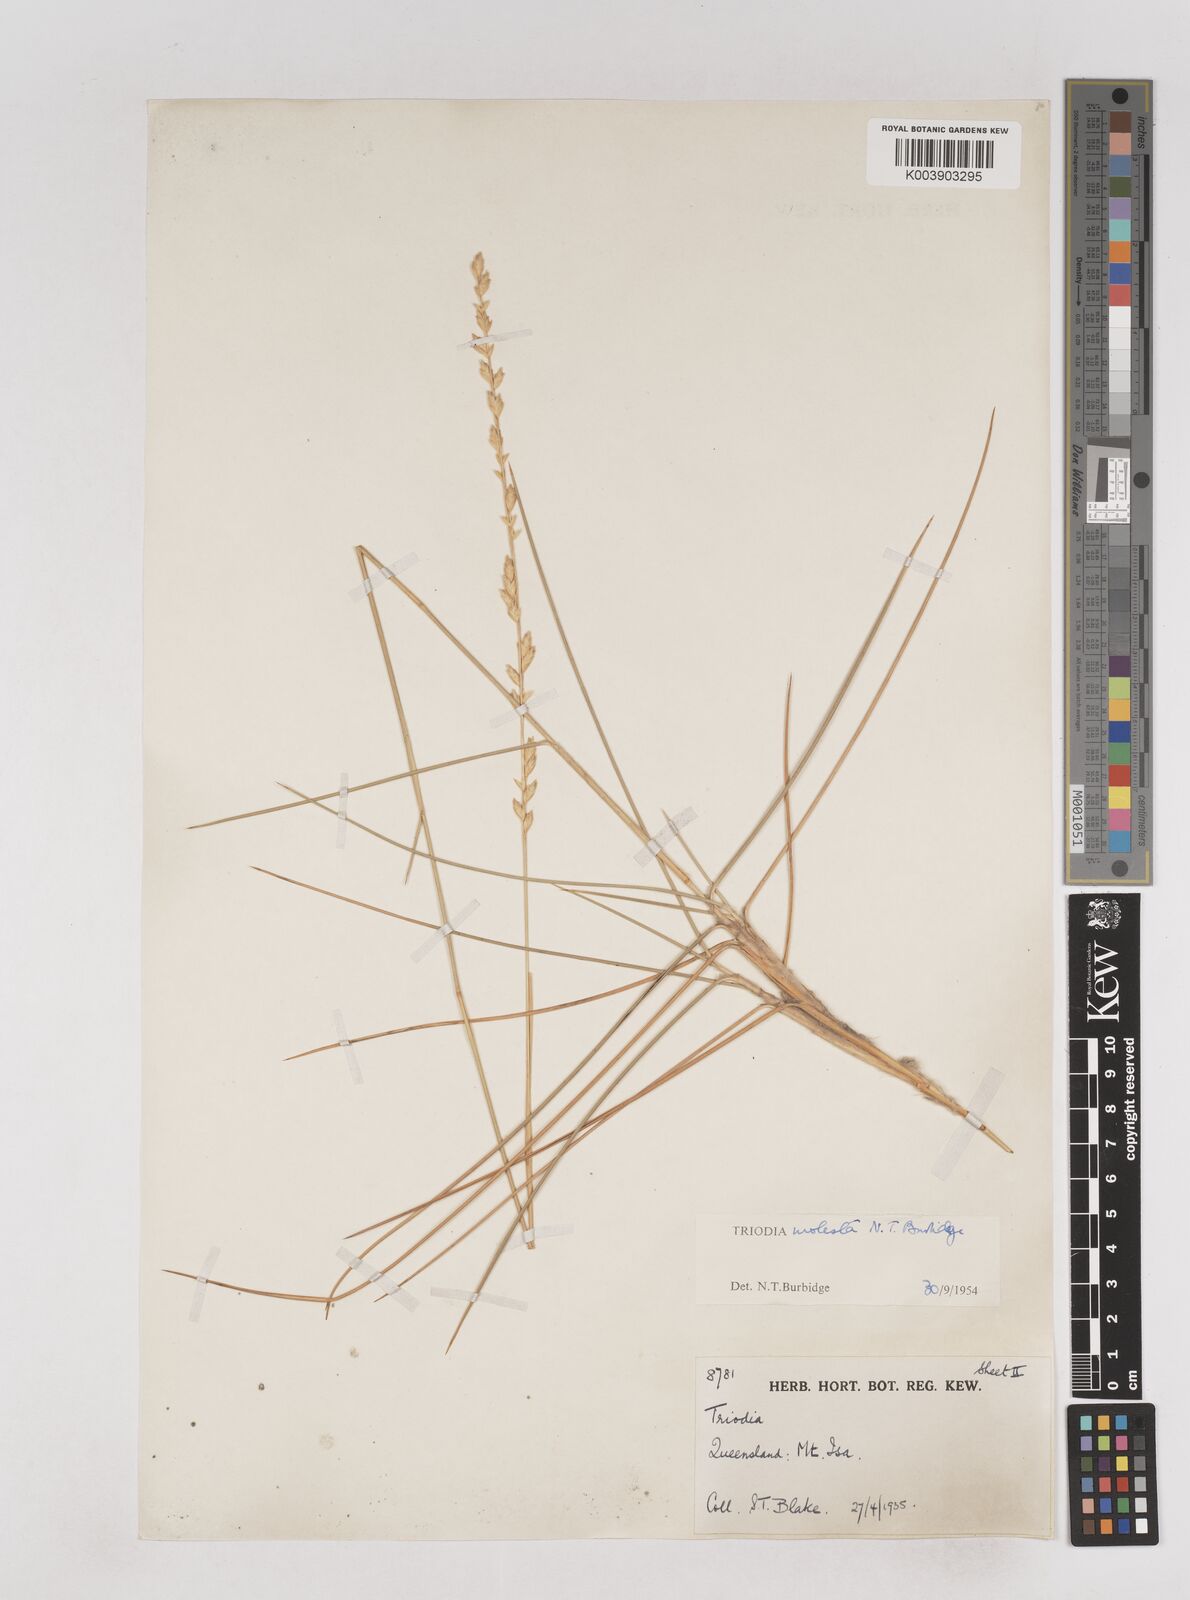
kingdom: Plantae
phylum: Tracheophyta
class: Liliopsida
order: Poales
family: Poaceae
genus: Triodia
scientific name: Triodia molesta
